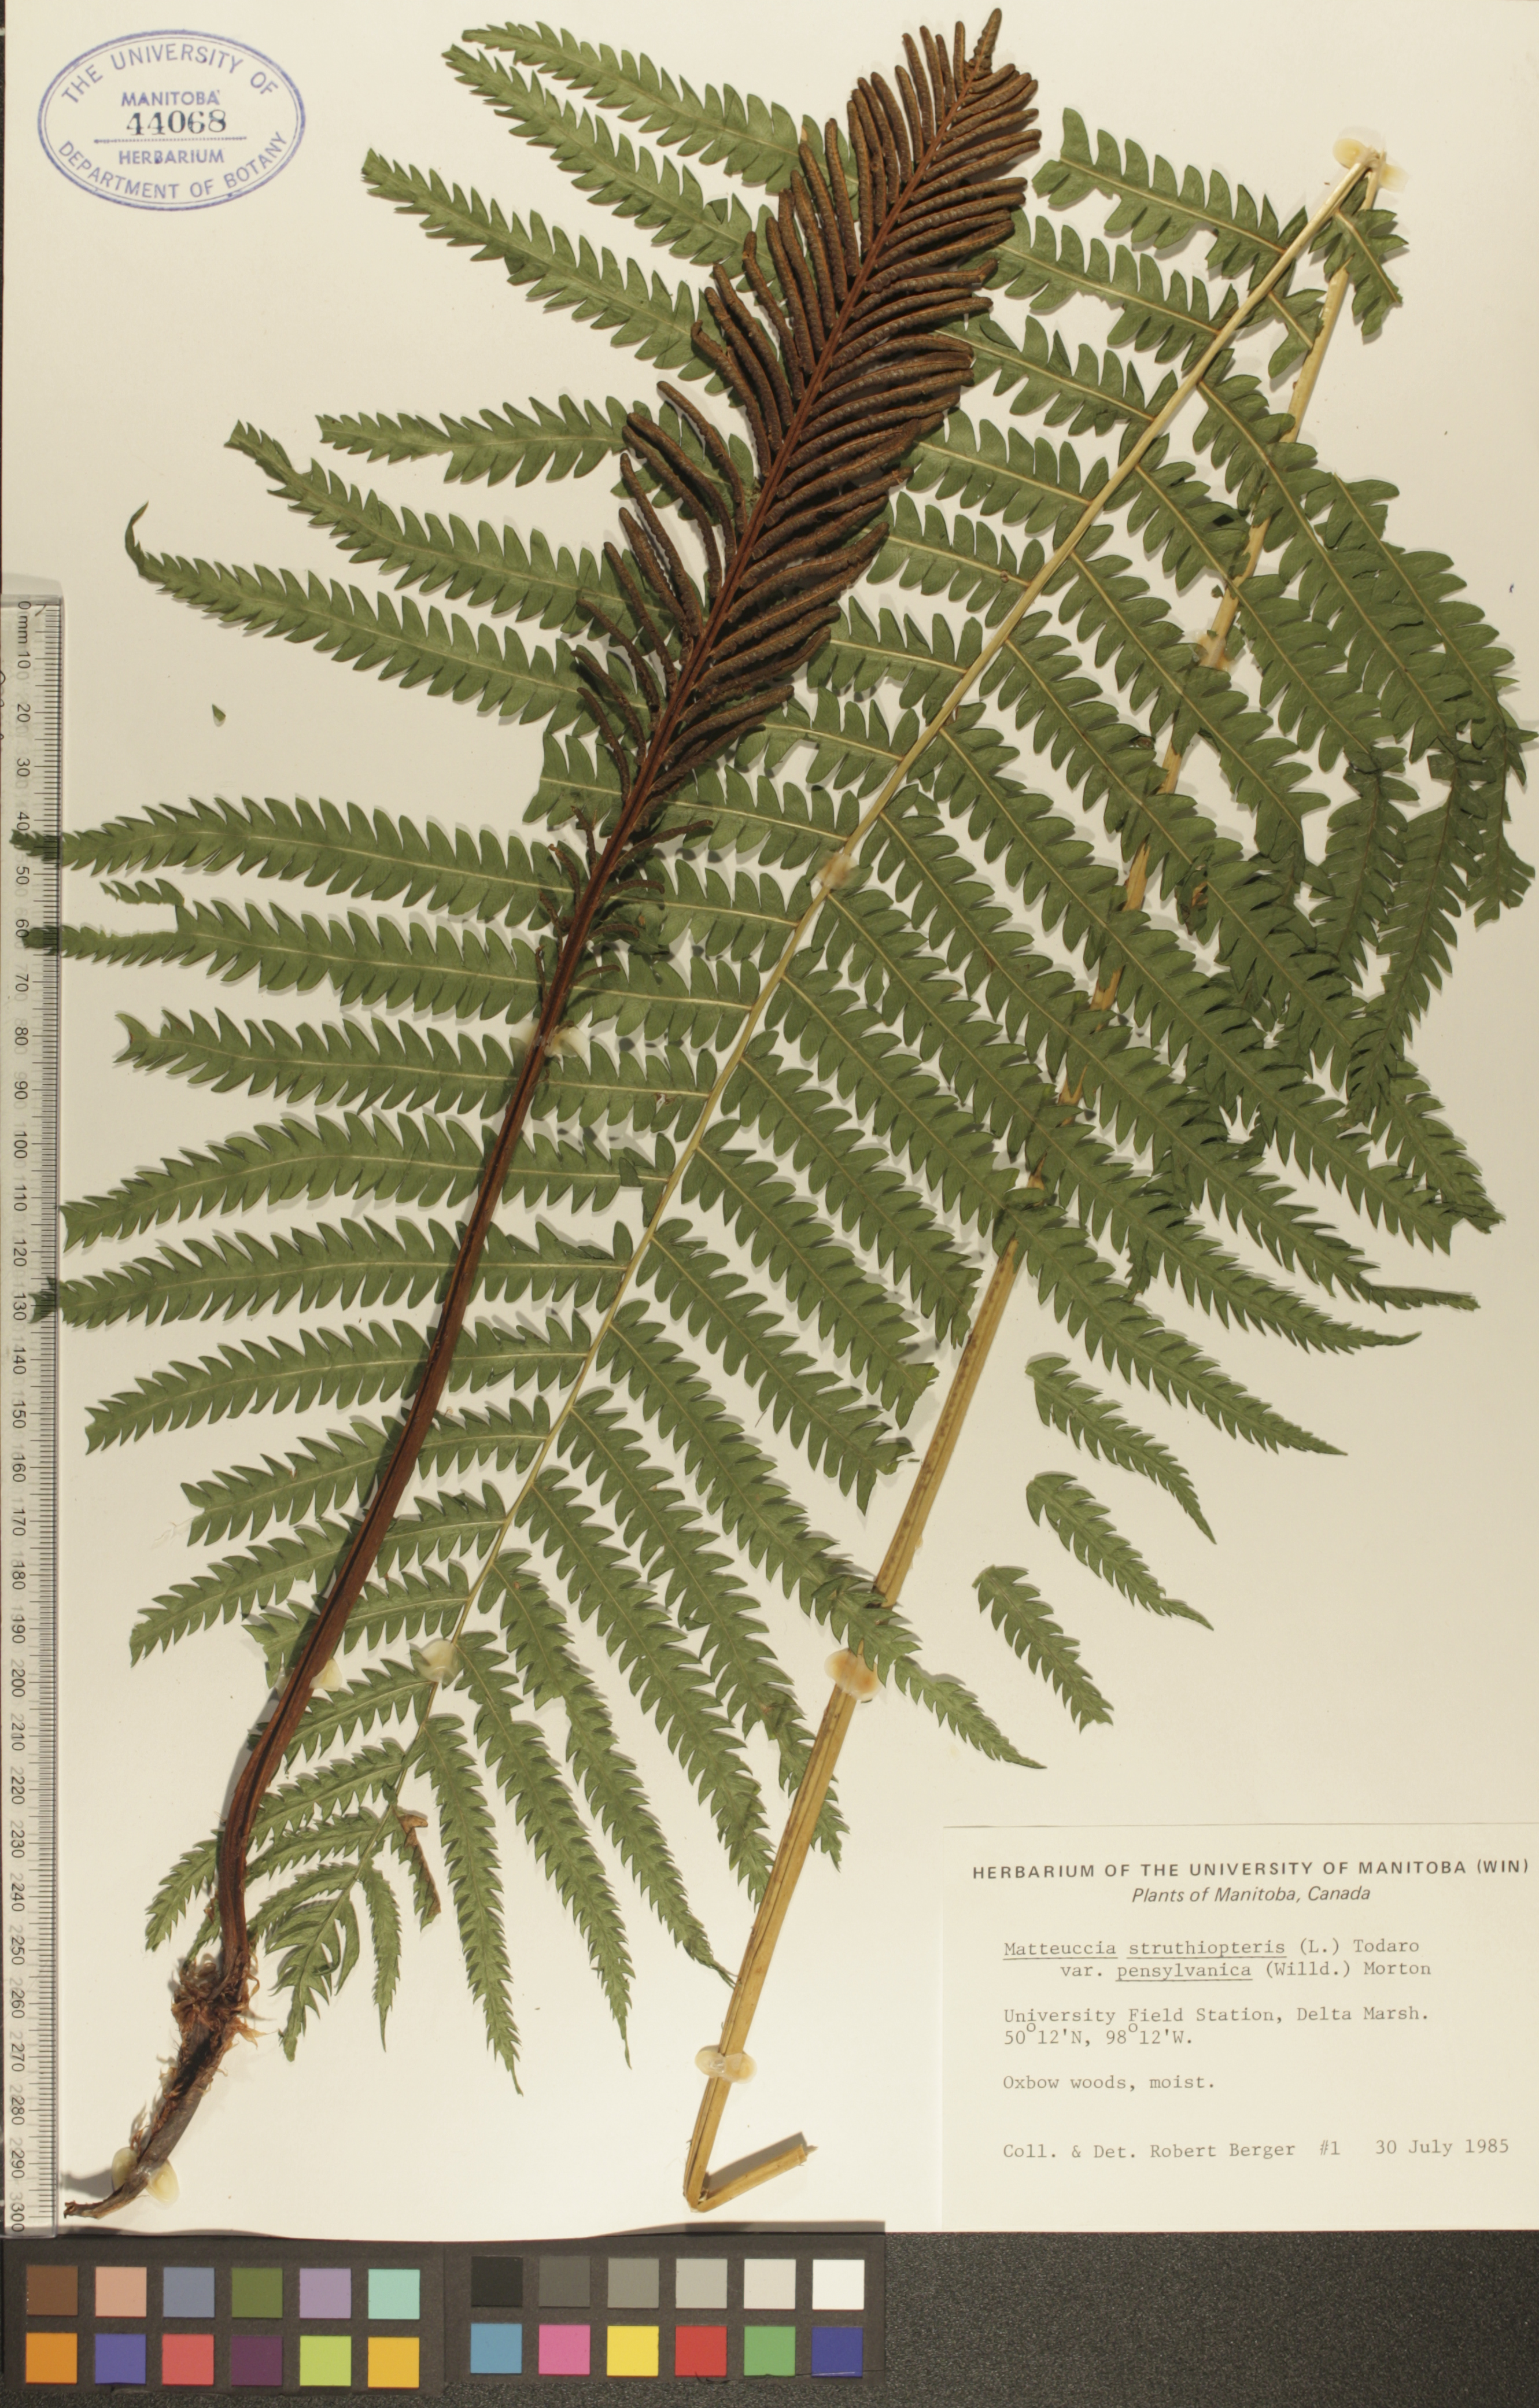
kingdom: Plantae
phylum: Tracheophyta
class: Polypodiopsida
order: Polypodiales
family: Onocleaceae
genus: Matteuccia
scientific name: Matteuccia pensylvanica
